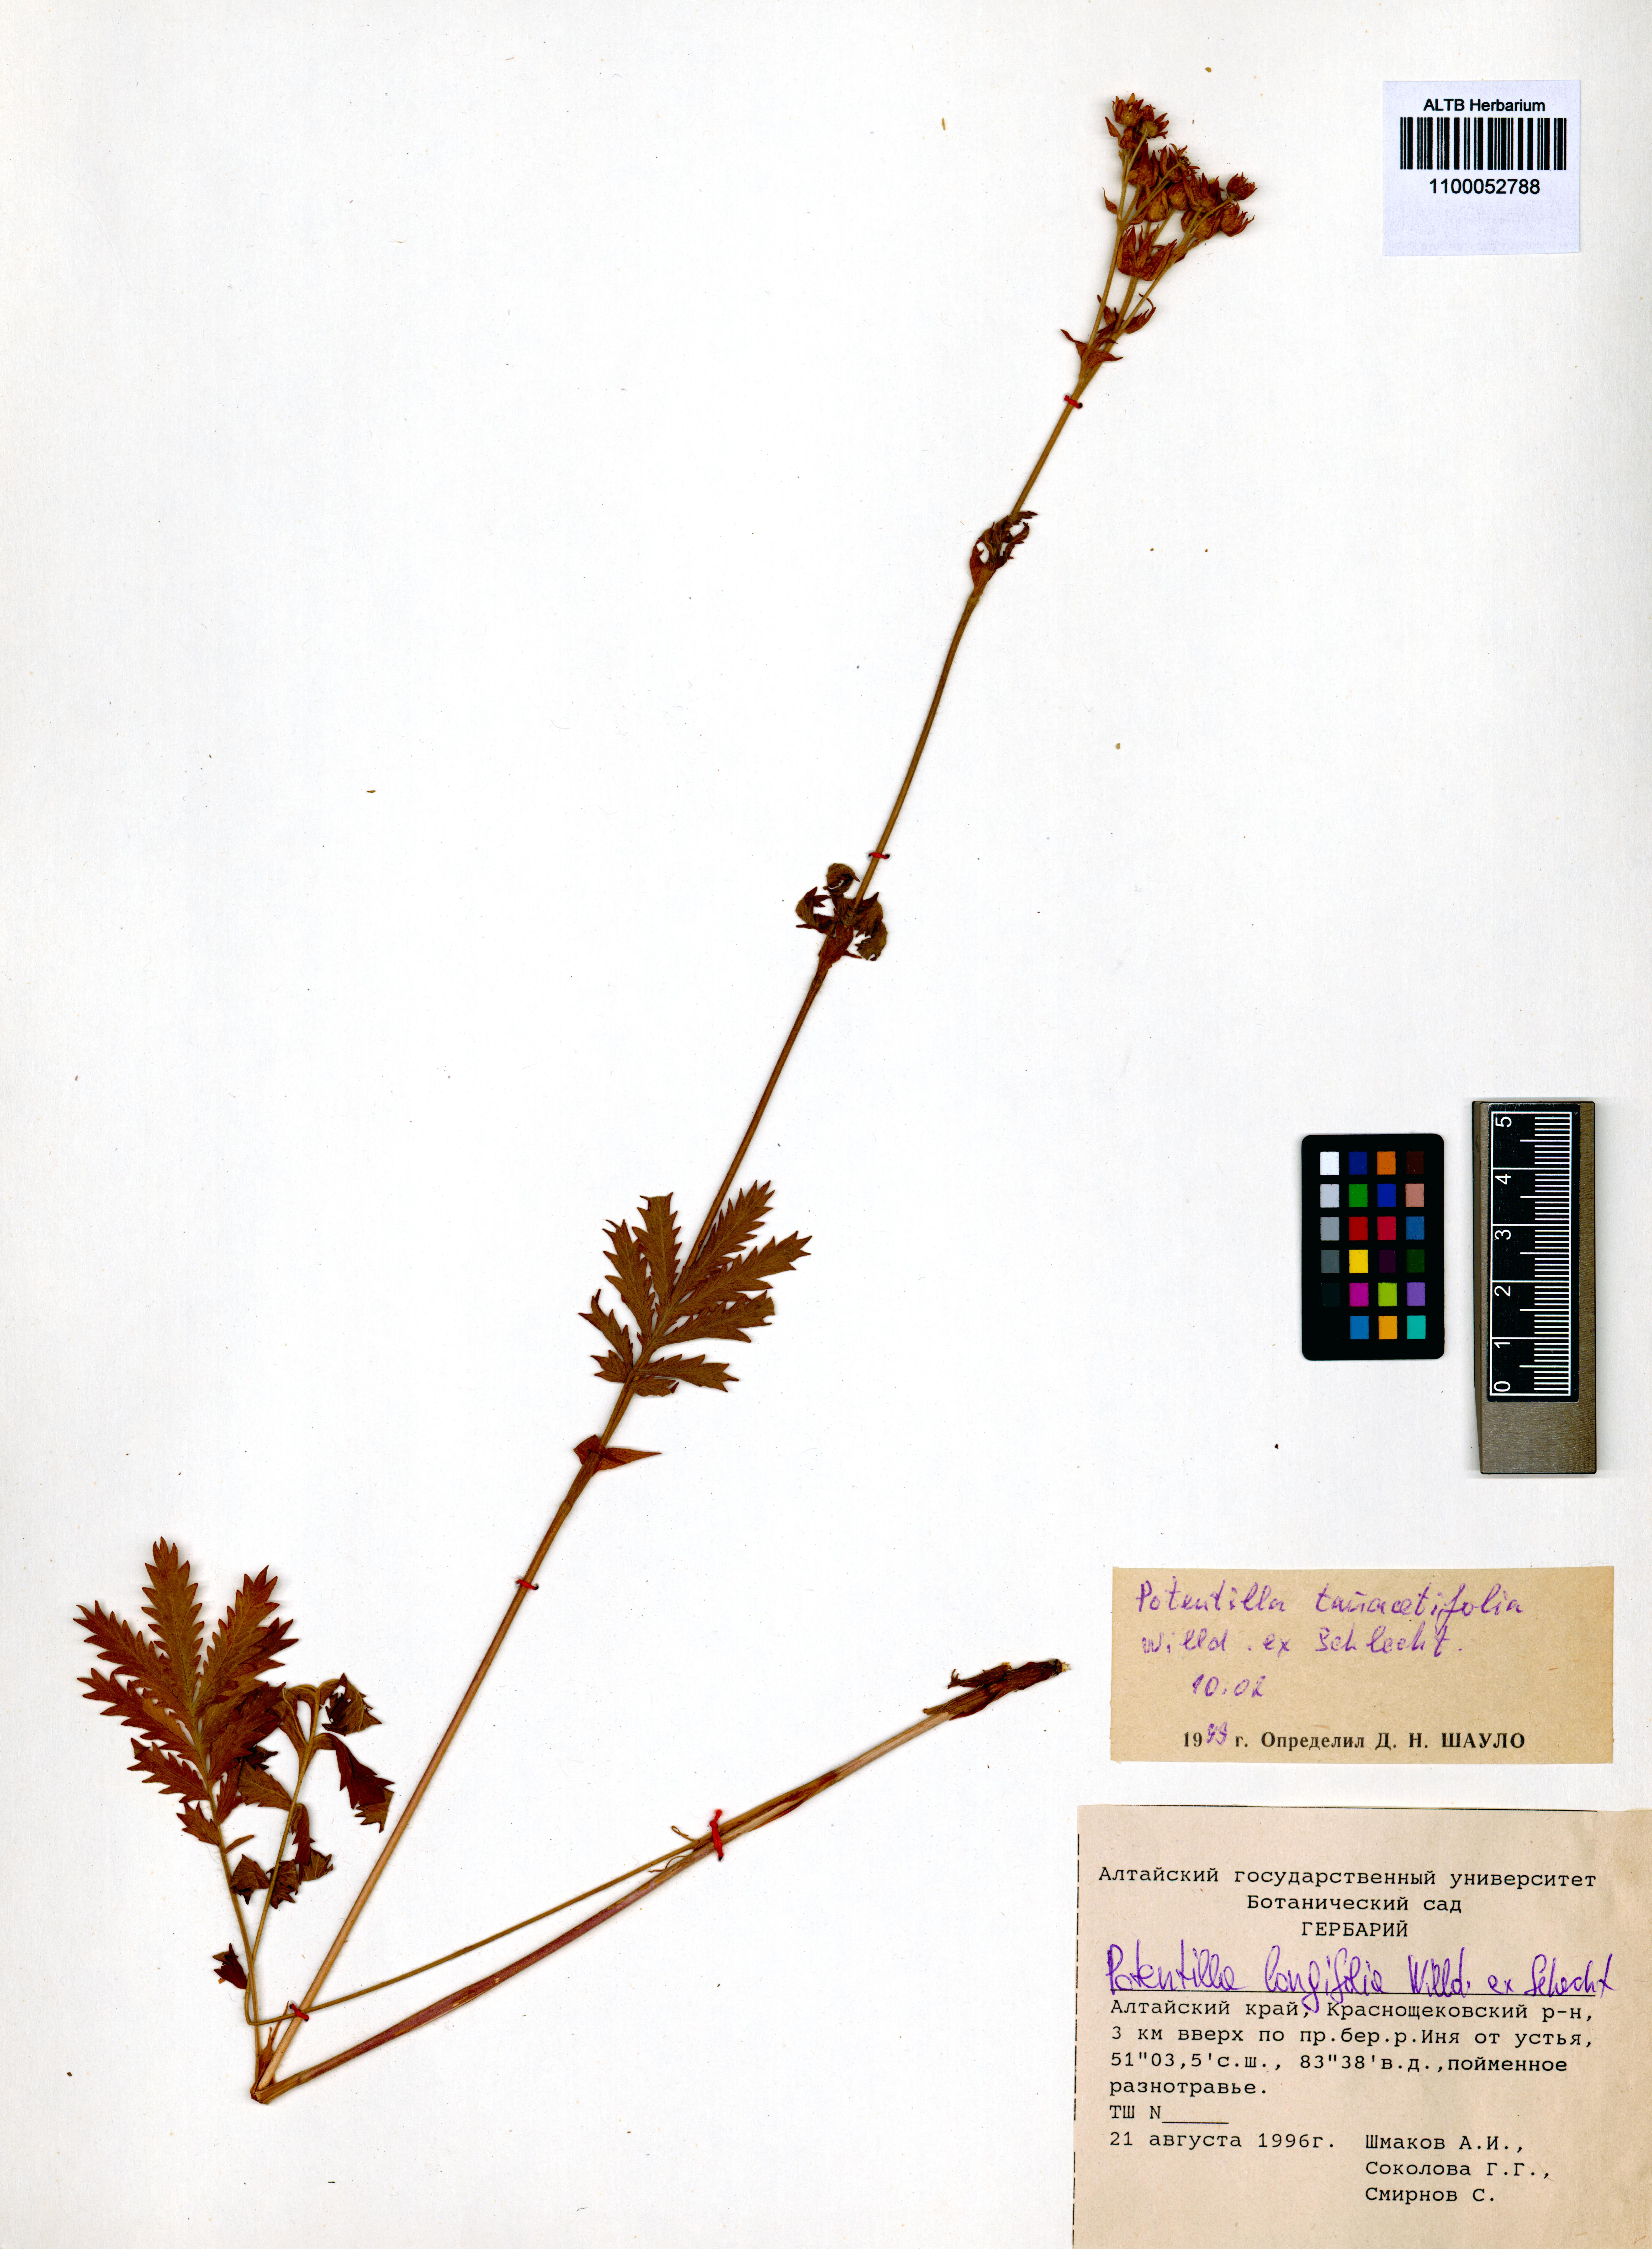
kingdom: Plantae
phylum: Tracheophyta
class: Magnoliopsida
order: Rosales
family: Rosaceae
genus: Potentilla
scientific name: Potentilla tanacetifolia
